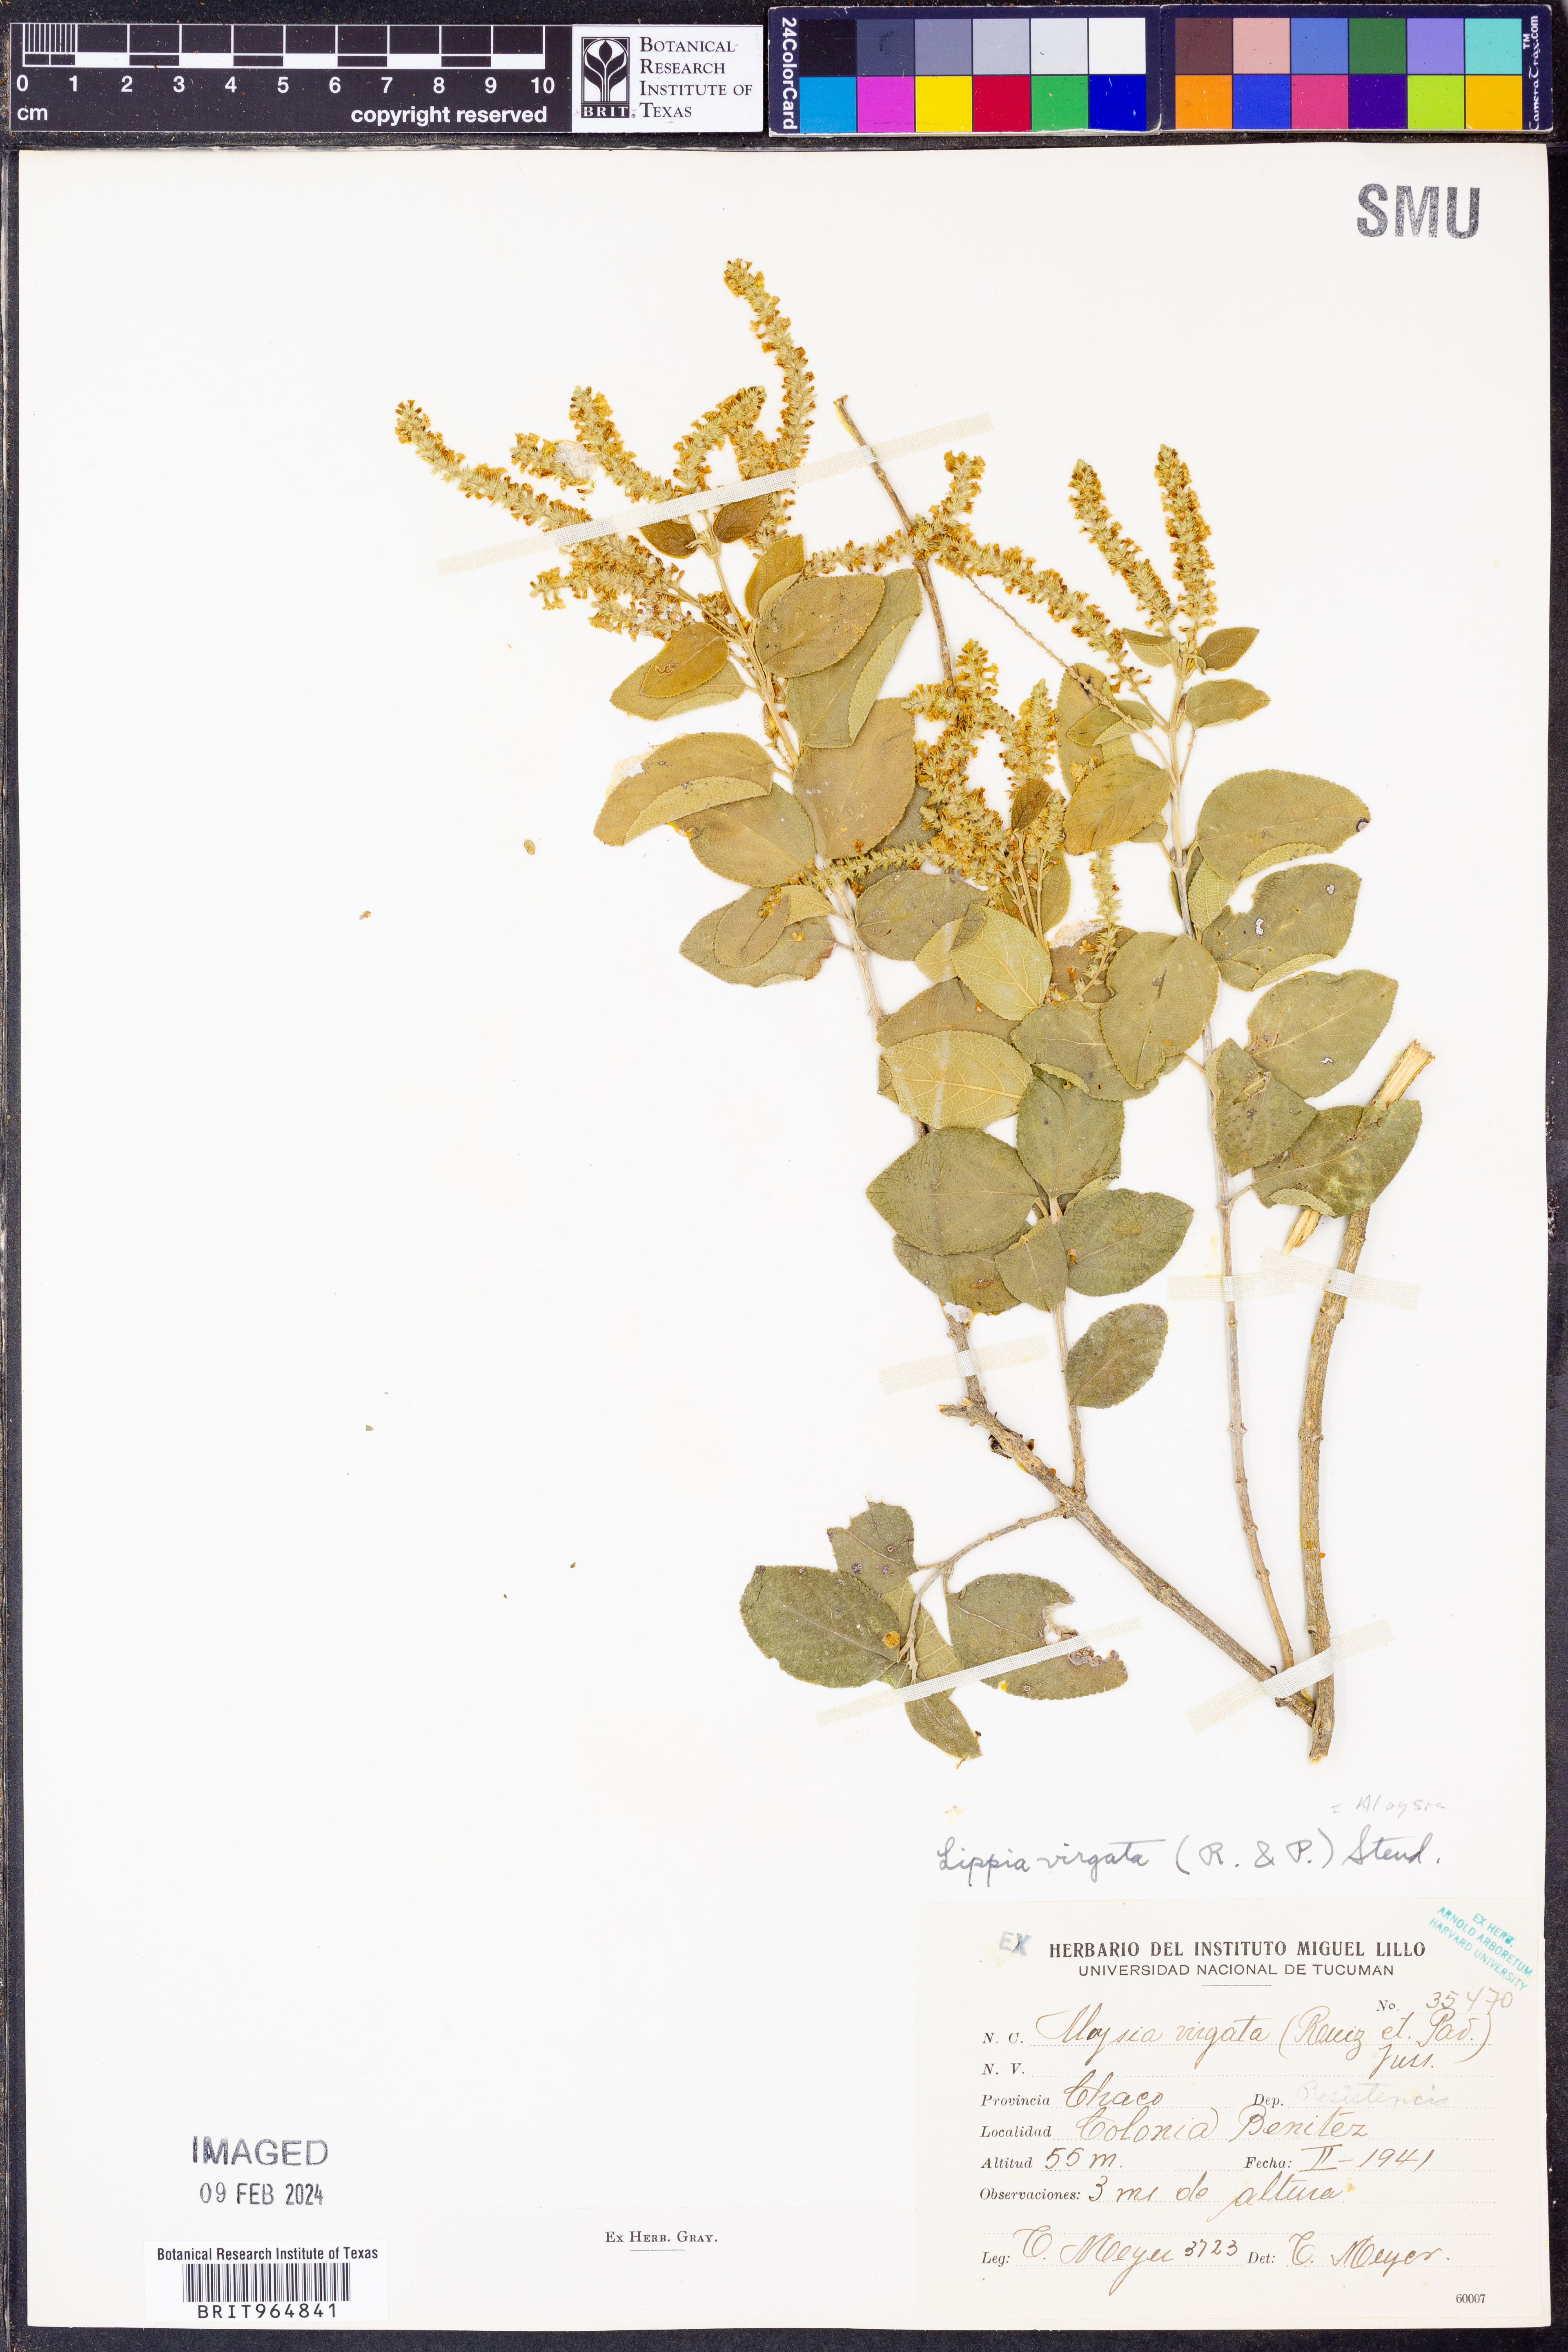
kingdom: Plantae
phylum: Tracheophyta
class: Magnoliopsida
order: Lamiales
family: Verbenaceae
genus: Aloysia
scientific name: Aloysia
